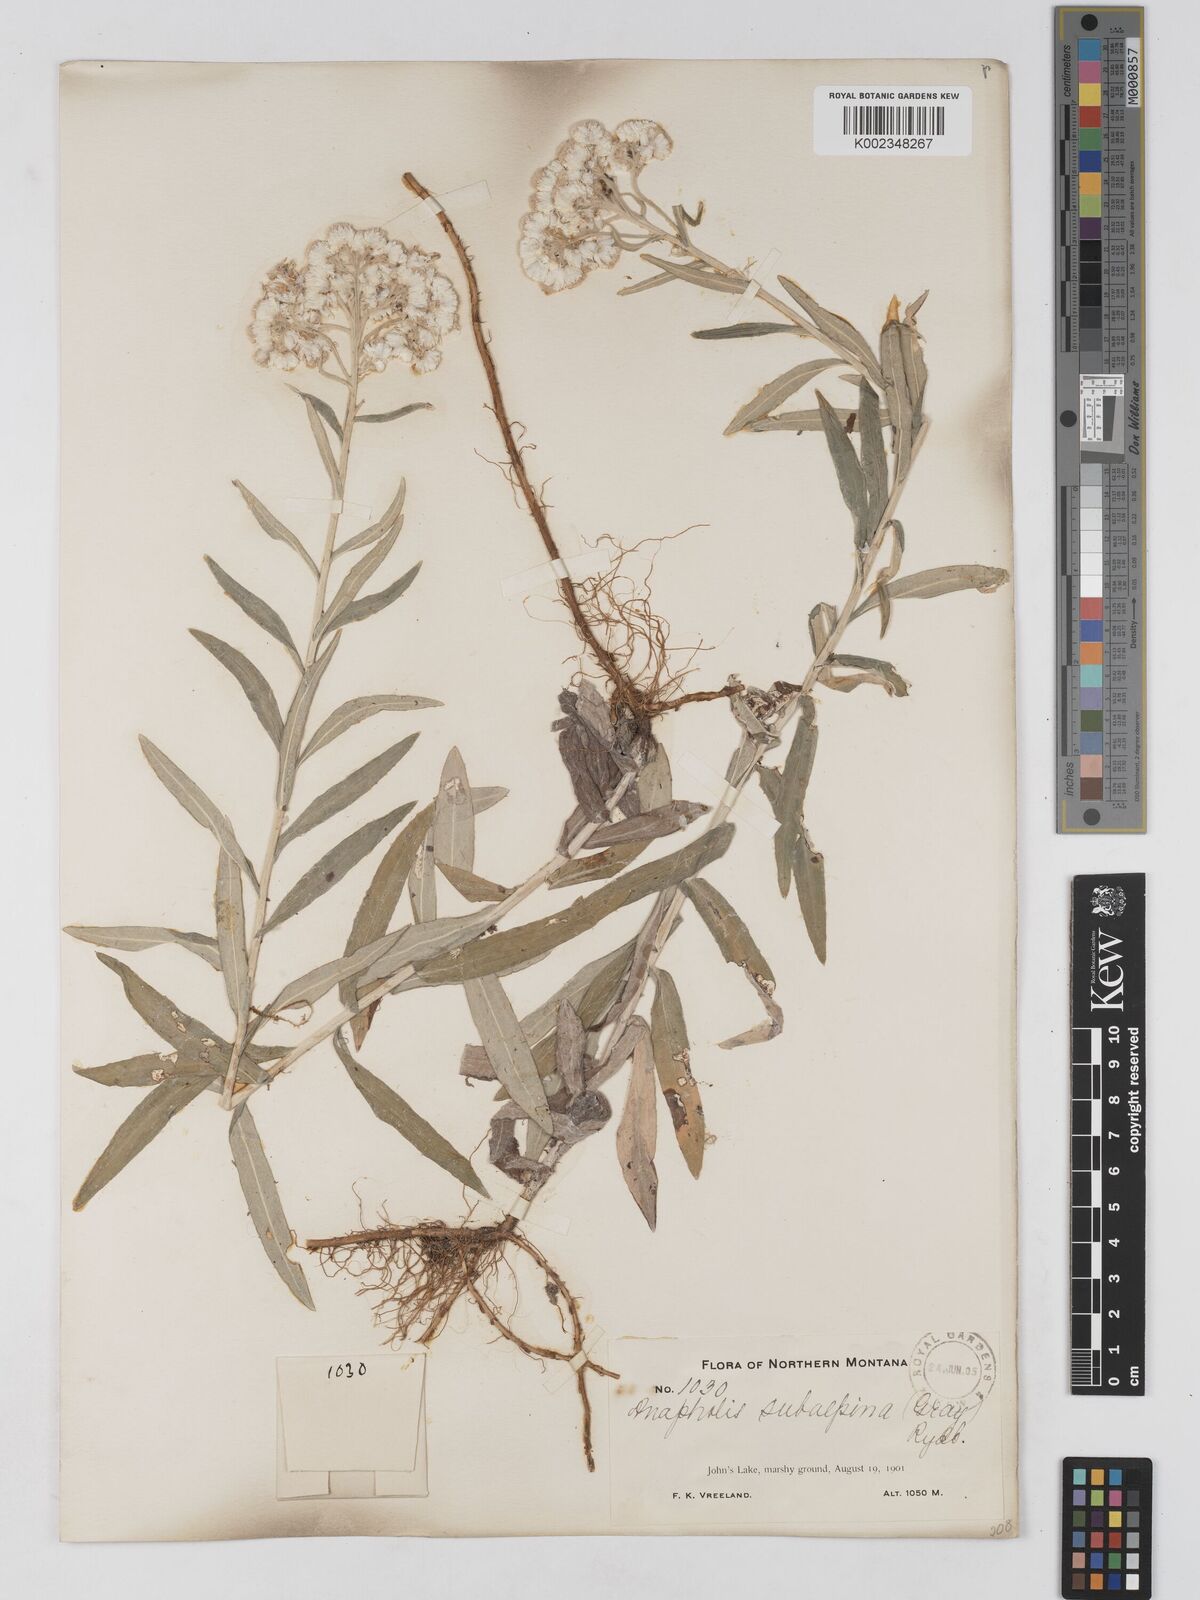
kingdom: Plantae
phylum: Tracheophyta
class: Magnoliopsida
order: Asterales
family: Asteraceae
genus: Anaphalis
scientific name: Anaphalis margaritacea
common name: Pearly everlasting
